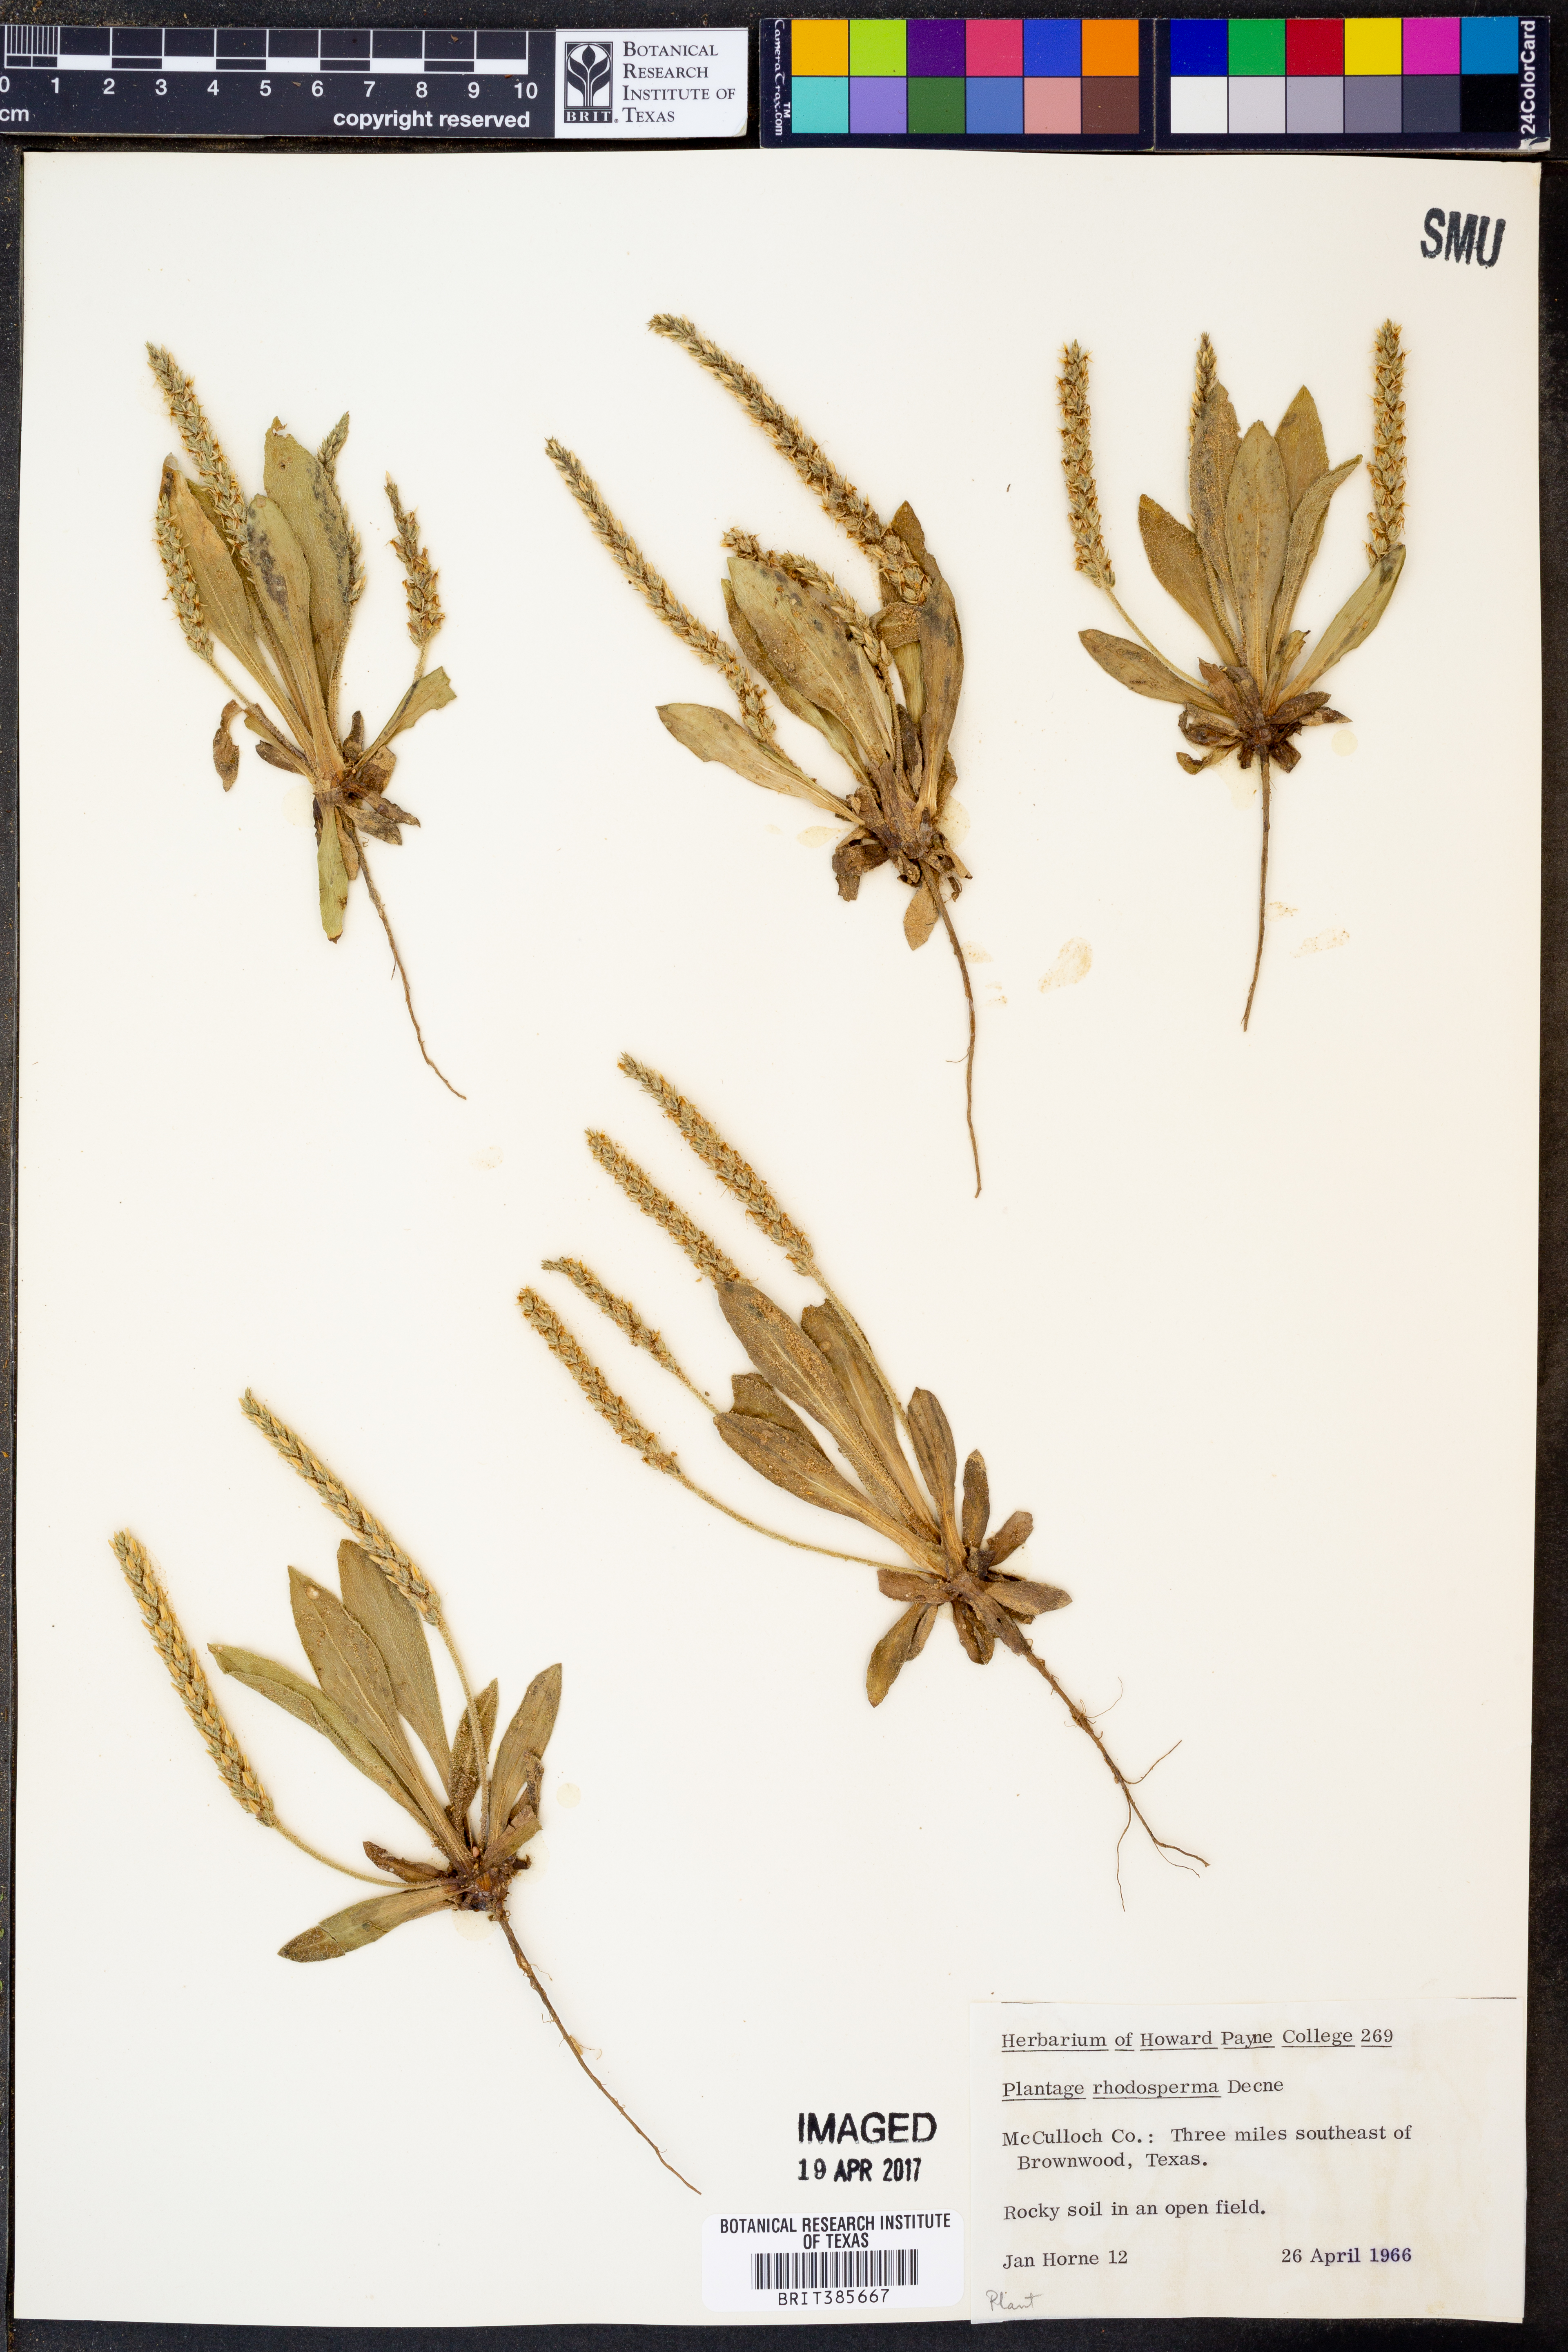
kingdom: Plantae
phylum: Tracheophyta
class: Magnoliopsida
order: Lamiales
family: Plantaginaceae
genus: Plantago
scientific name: Plantago rhodosperma
